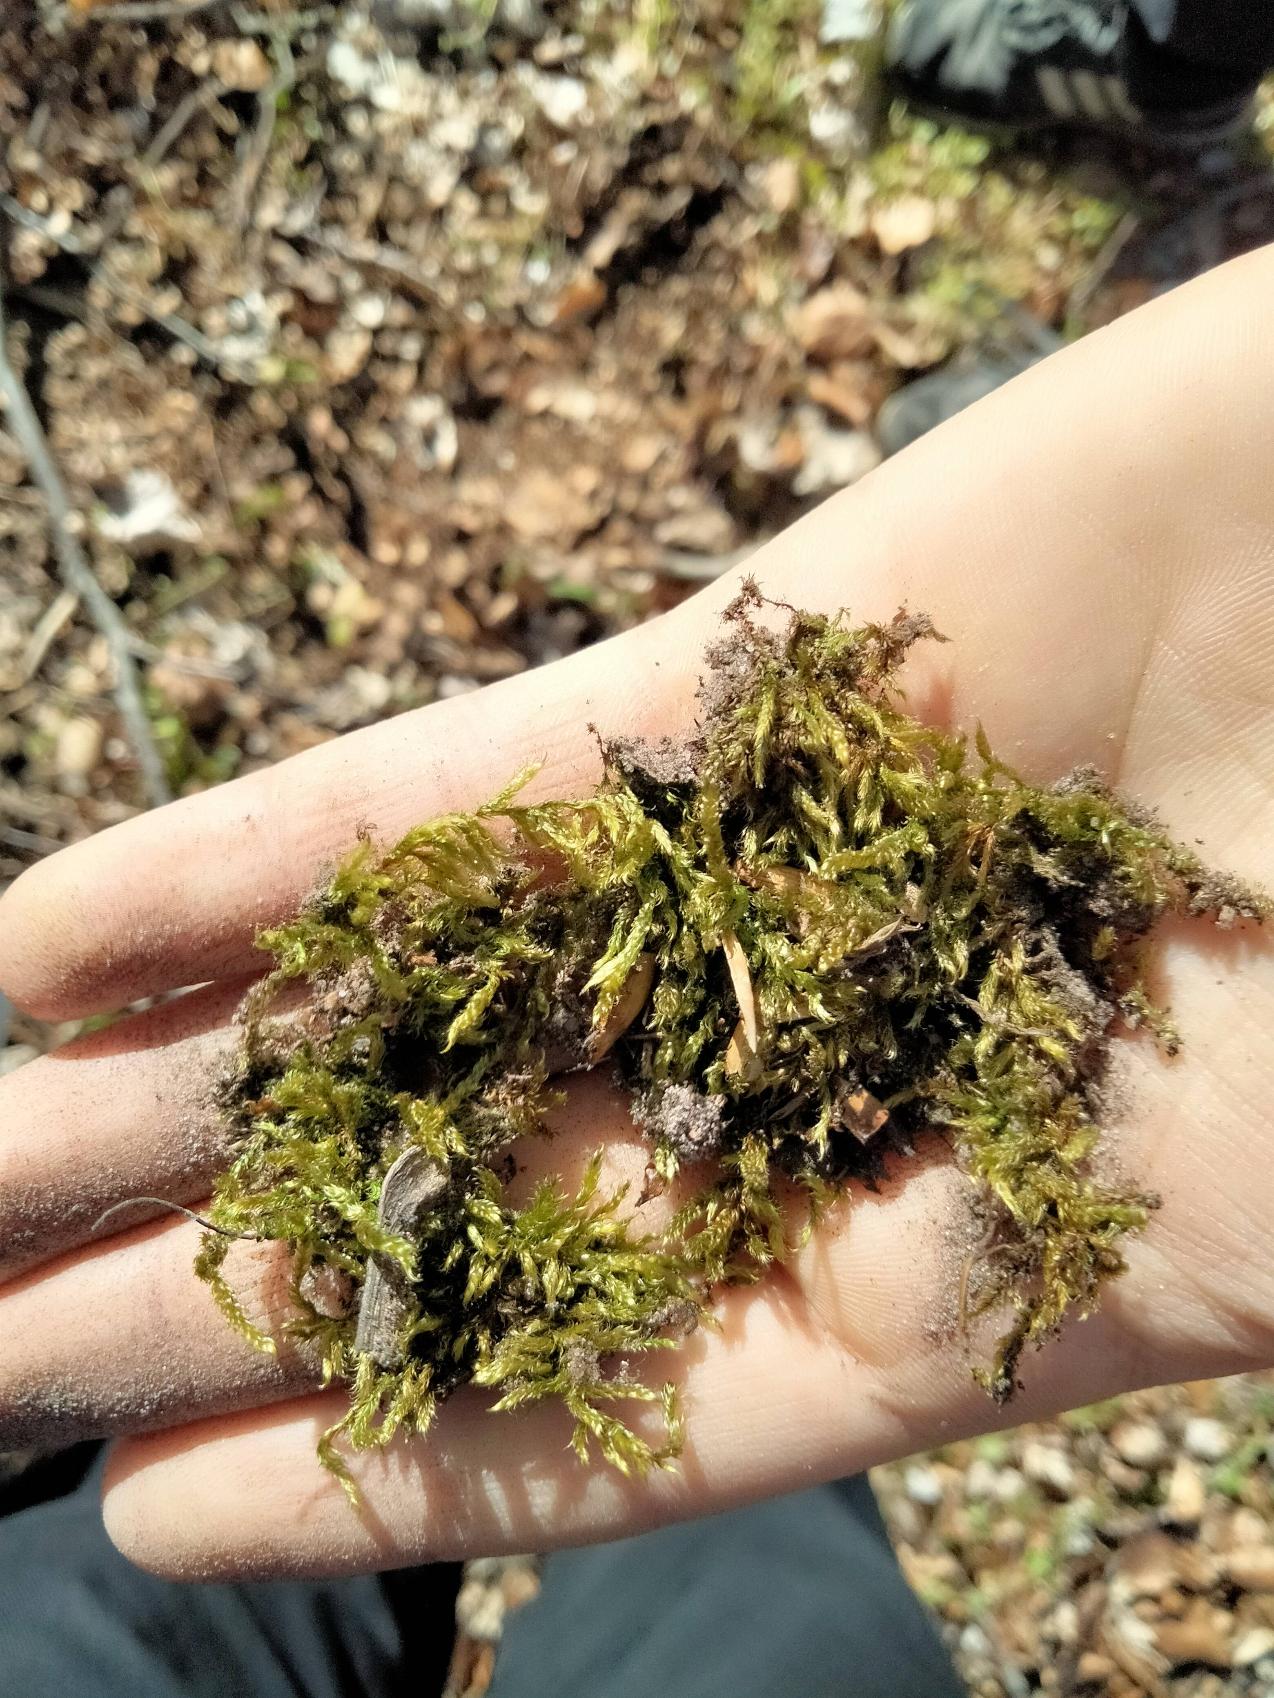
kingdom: Plantae
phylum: Bryophyta
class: Bryopsida
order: Hypnales
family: Hypnaceae
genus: Hypnum
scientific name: Hypnum cupressiforme
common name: Almindelig cypresmos
